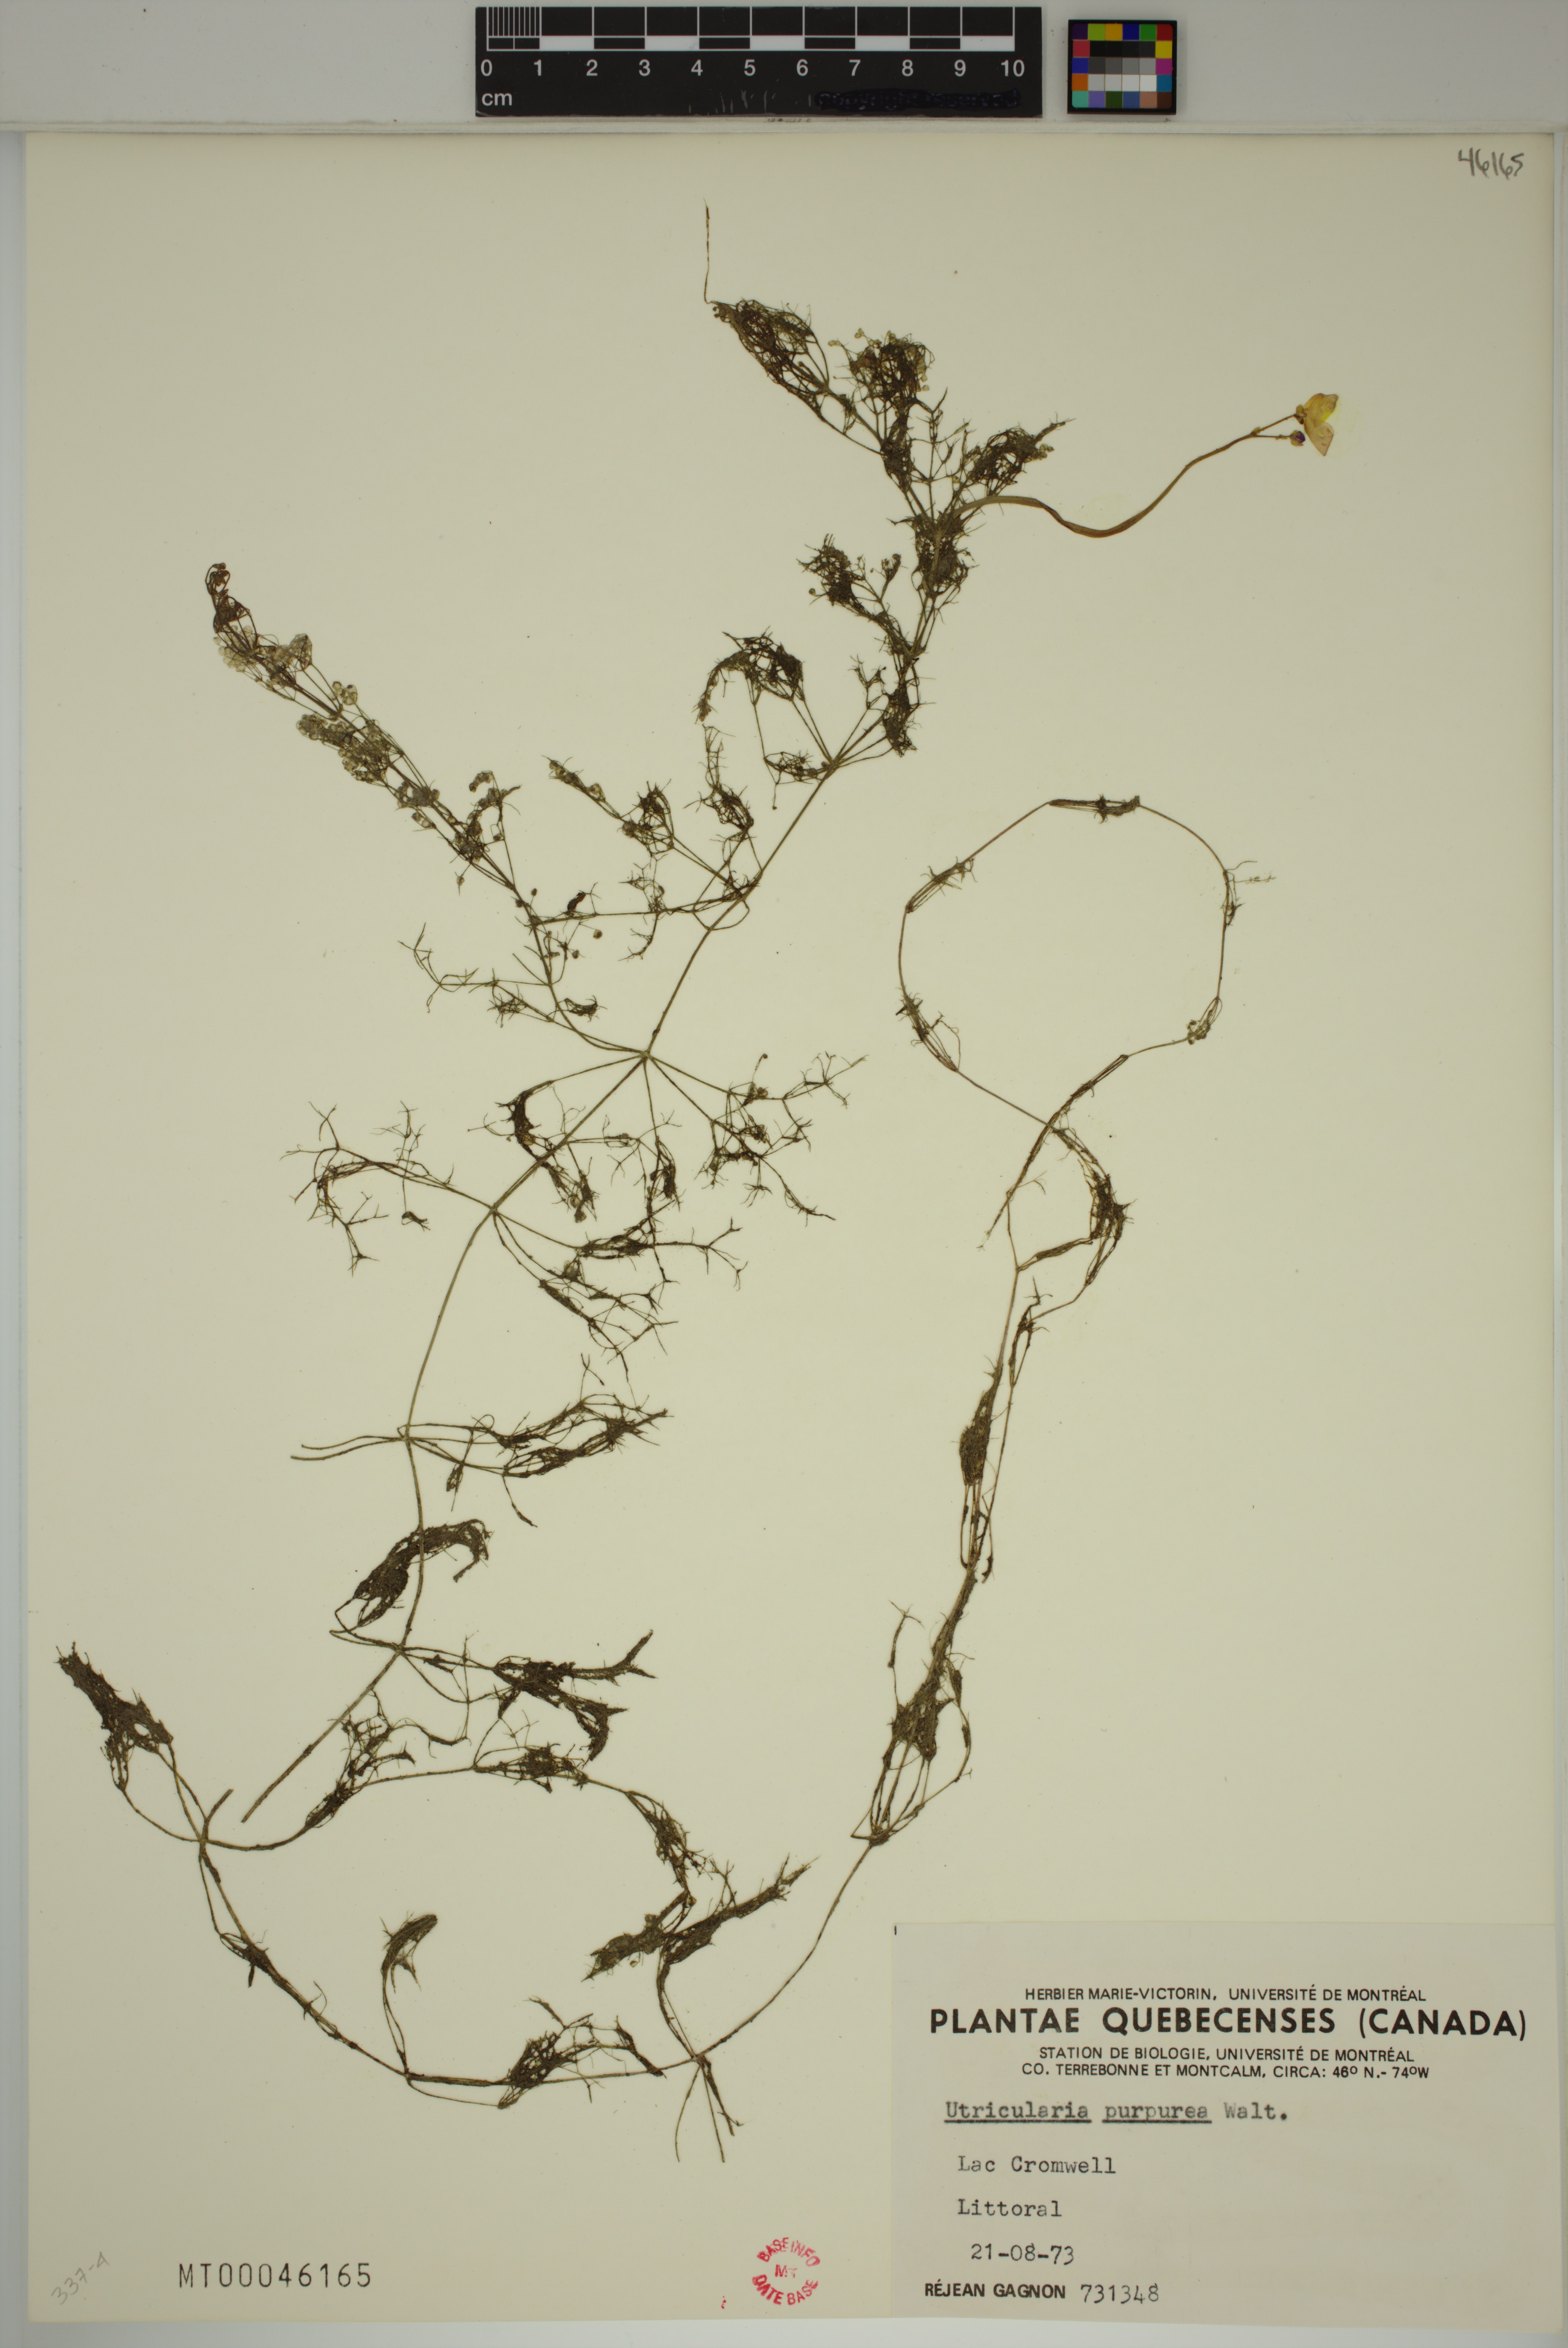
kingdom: Plantae
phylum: Tracheophyta
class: Magnoliopsida
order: Lamiales
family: Lentibulariaceae
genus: Utricularia
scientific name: Utricularia purpurea
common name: Eastern purple bladderwort
